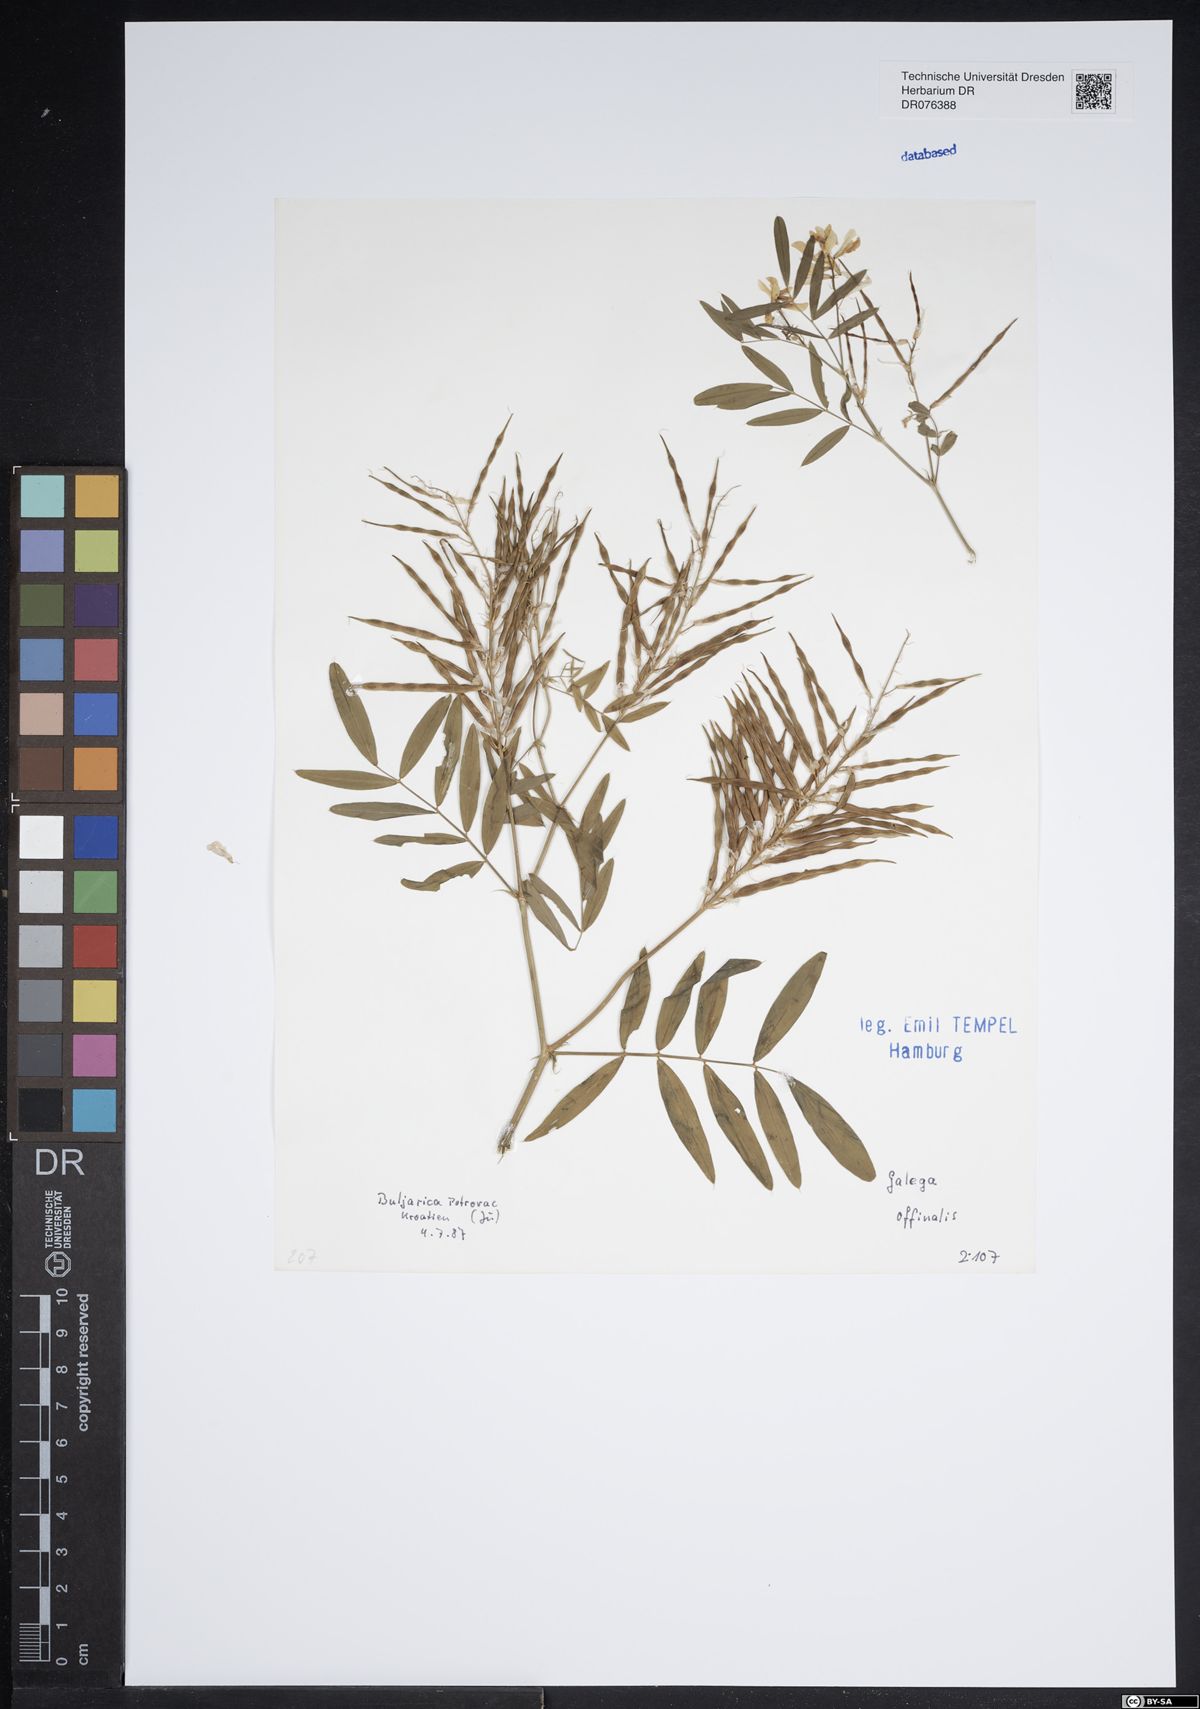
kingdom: Plantae
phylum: Tracheophyta
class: Magnoliopsida
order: Fabales
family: Fabaceae
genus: Galega
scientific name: Galega officinalis
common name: Goat's-rue
